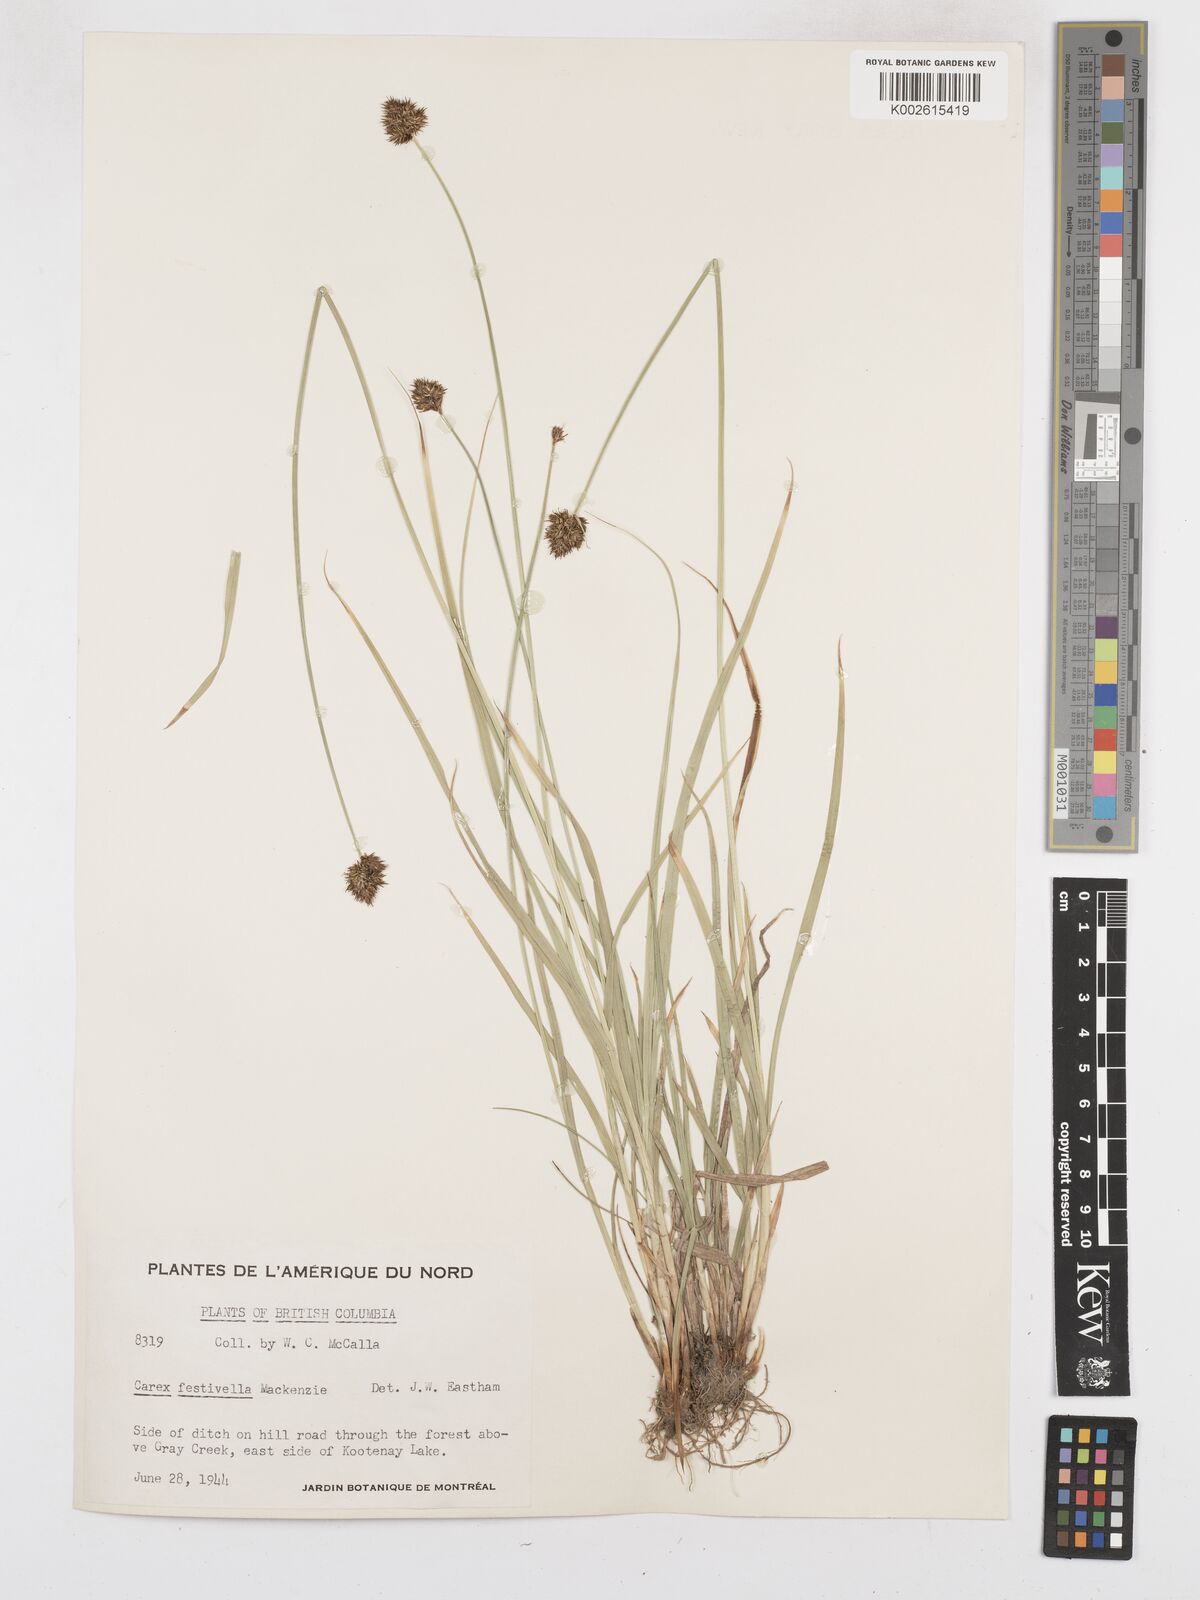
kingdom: Plantae
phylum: Tracheophyta
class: Liliopsida
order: Poales
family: Cyperaceae
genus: Carex
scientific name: Carex microptera
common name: Oval-headed sedge
